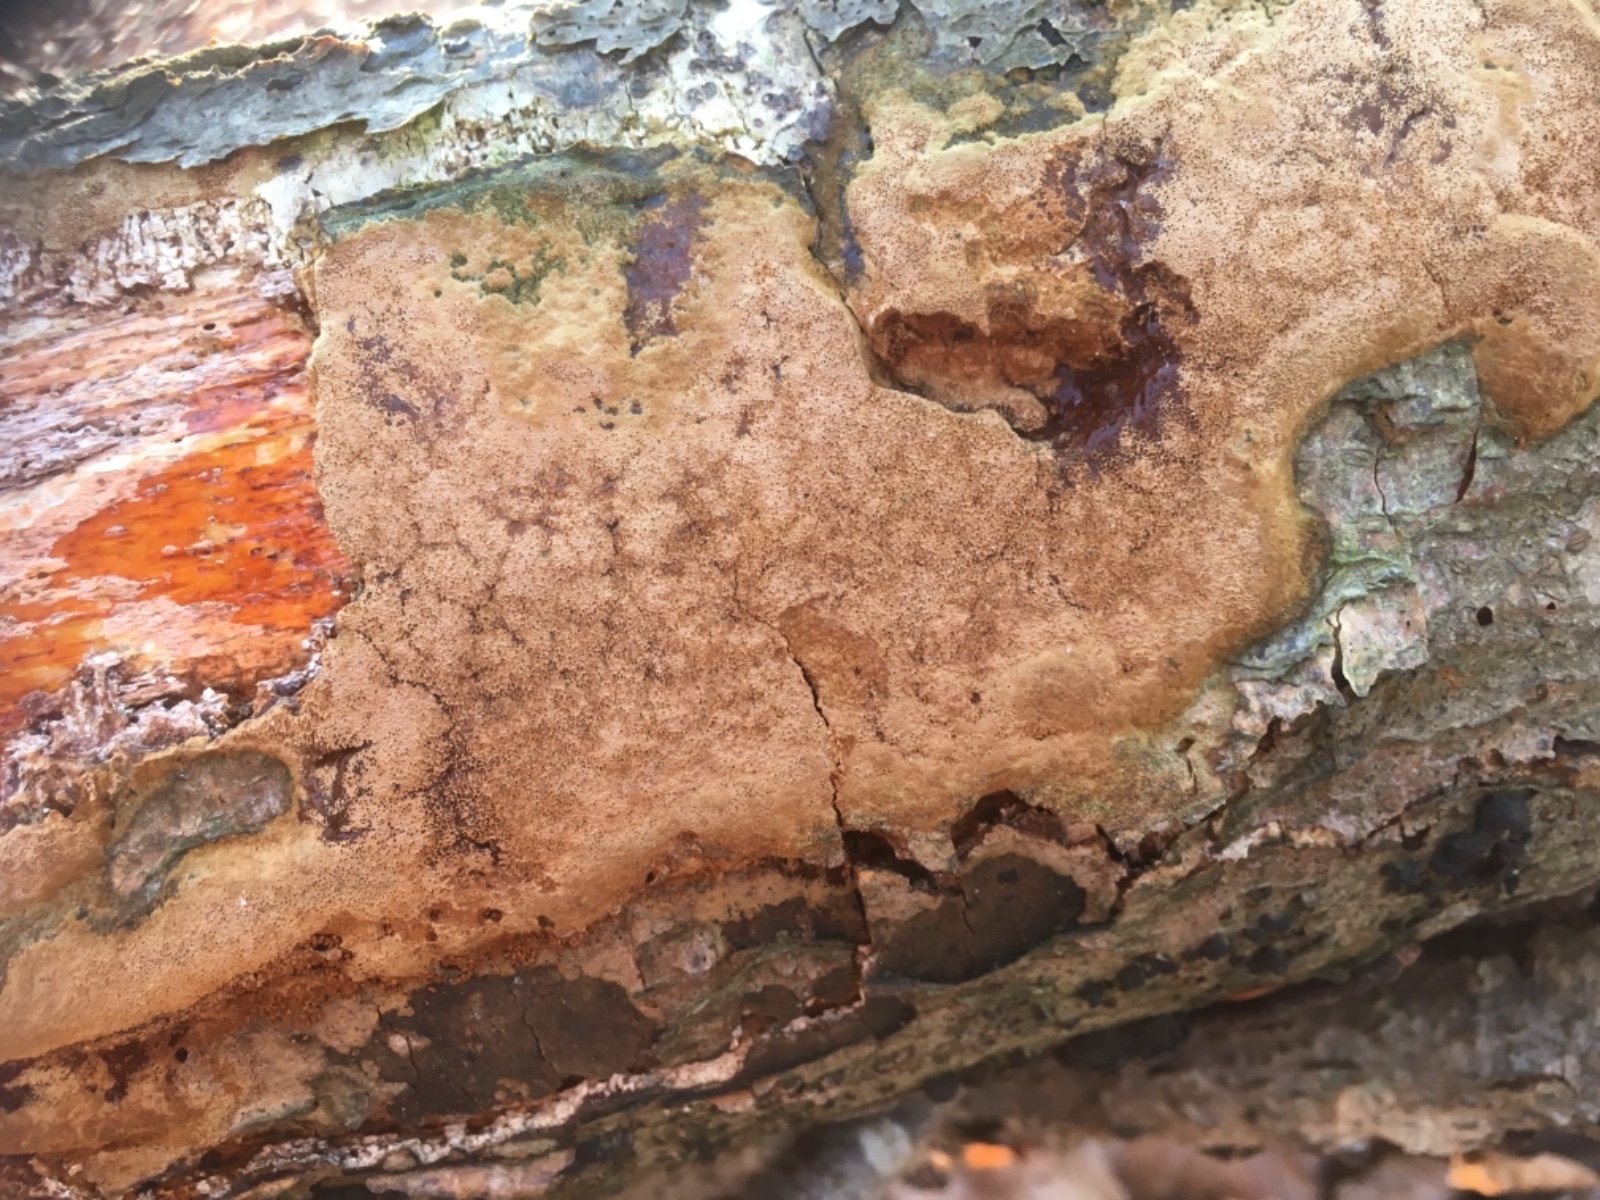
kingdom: Fungi
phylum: Basidiomycota
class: Agaricomycetes
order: Hymenochaetales
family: Hymenochaetaceae
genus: Fuscoporia
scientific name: Fuscoporia ferruginosa
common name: rustbrun ildporesvamp
